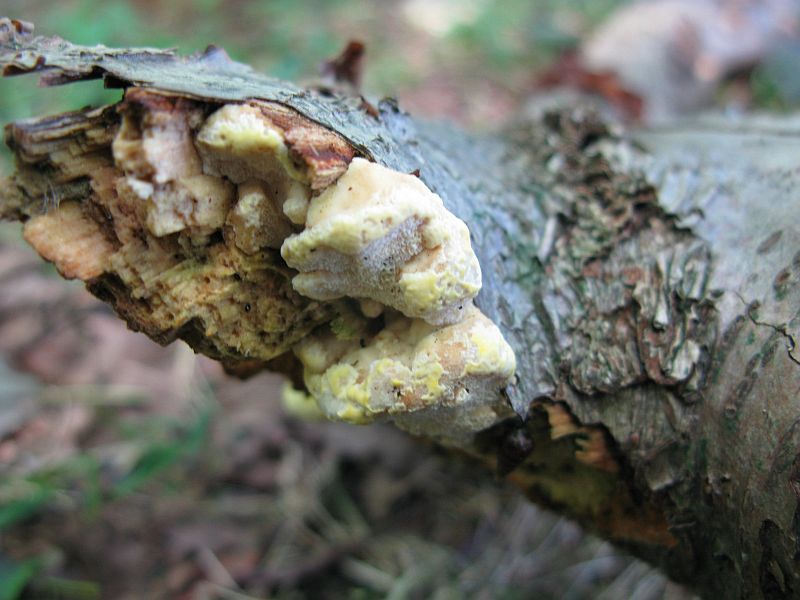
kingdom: Fungi
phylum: Basidiomycota
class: Agaricomycetes
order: Polyporales
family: Steccherinaceae
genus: Antrodiella
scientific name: Antrodiella serpula
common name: gulrandet elastikporesvamp
